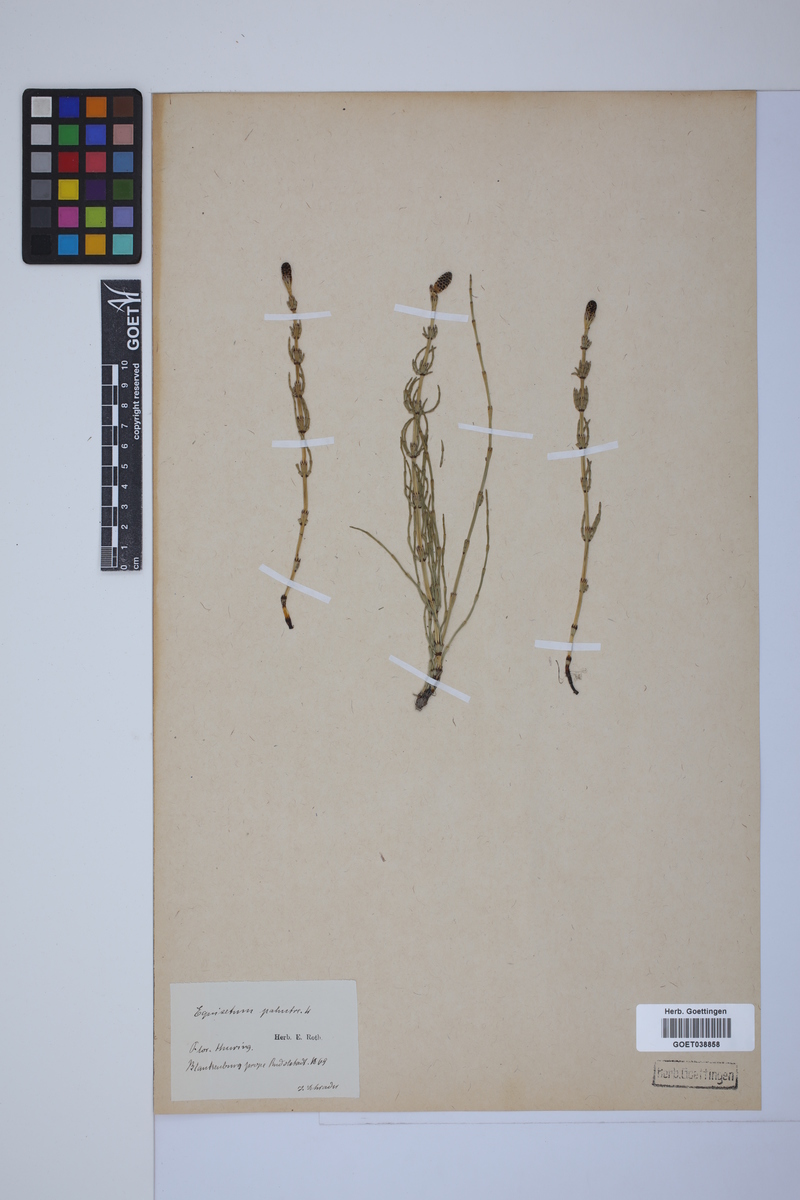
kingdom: Plantae
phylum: Tracheophyta
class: Polypodiopsida
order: Equisetales
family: Equisetaceae
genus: Equisetum
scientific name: Equisetum palustre
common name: Marsh horsetail
